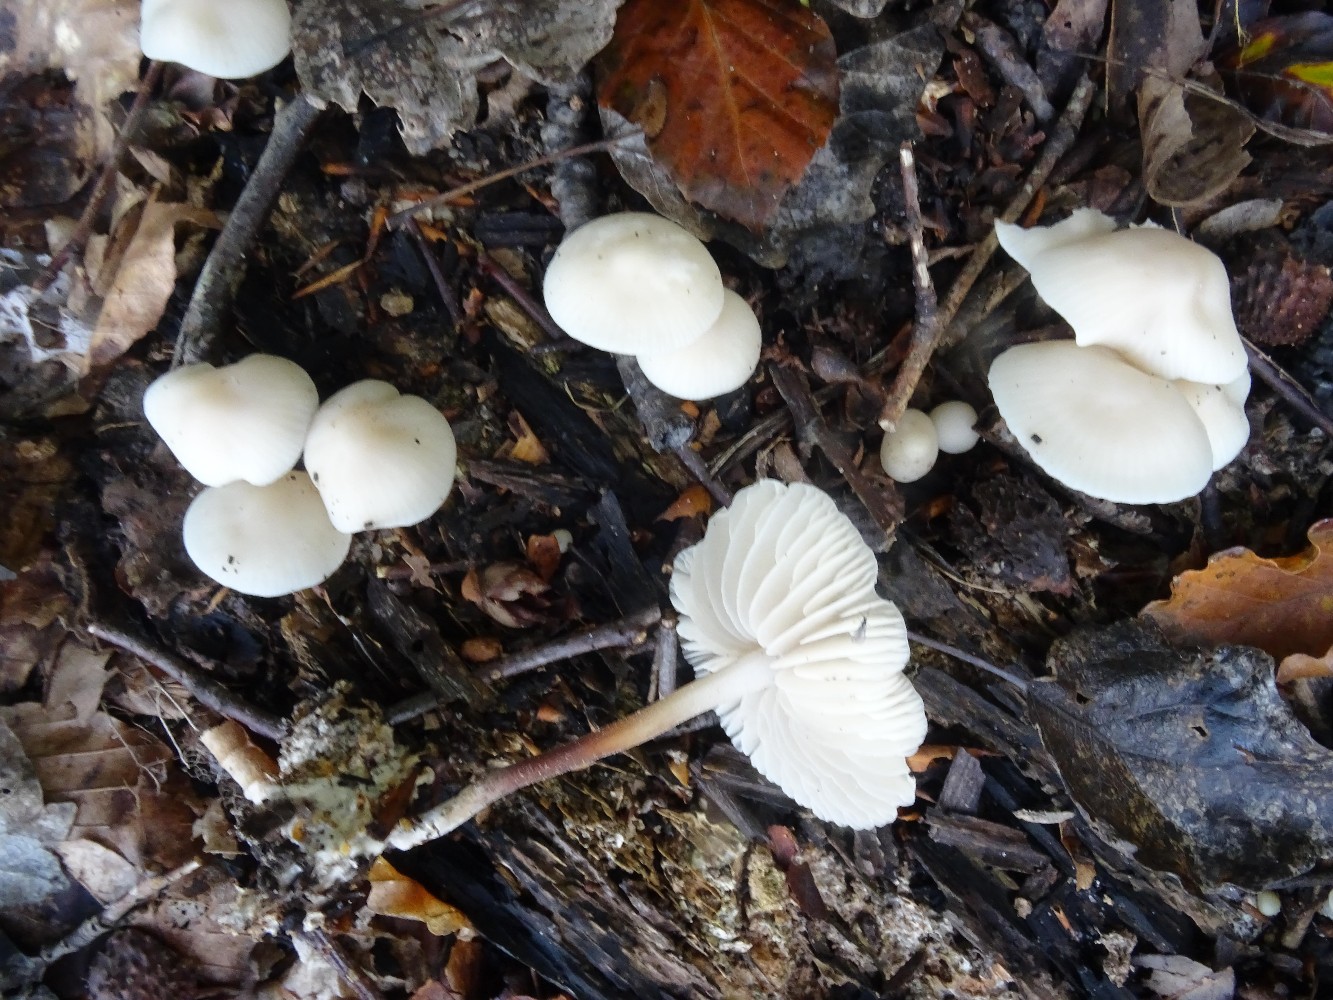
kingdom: Fungi
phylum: Basidiomycota
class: Agaricomycetes
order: Agaricales
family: Marasmiaceae
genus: Marasmius
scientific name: Marasmius wynneae
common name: hvælvet bruskhat
